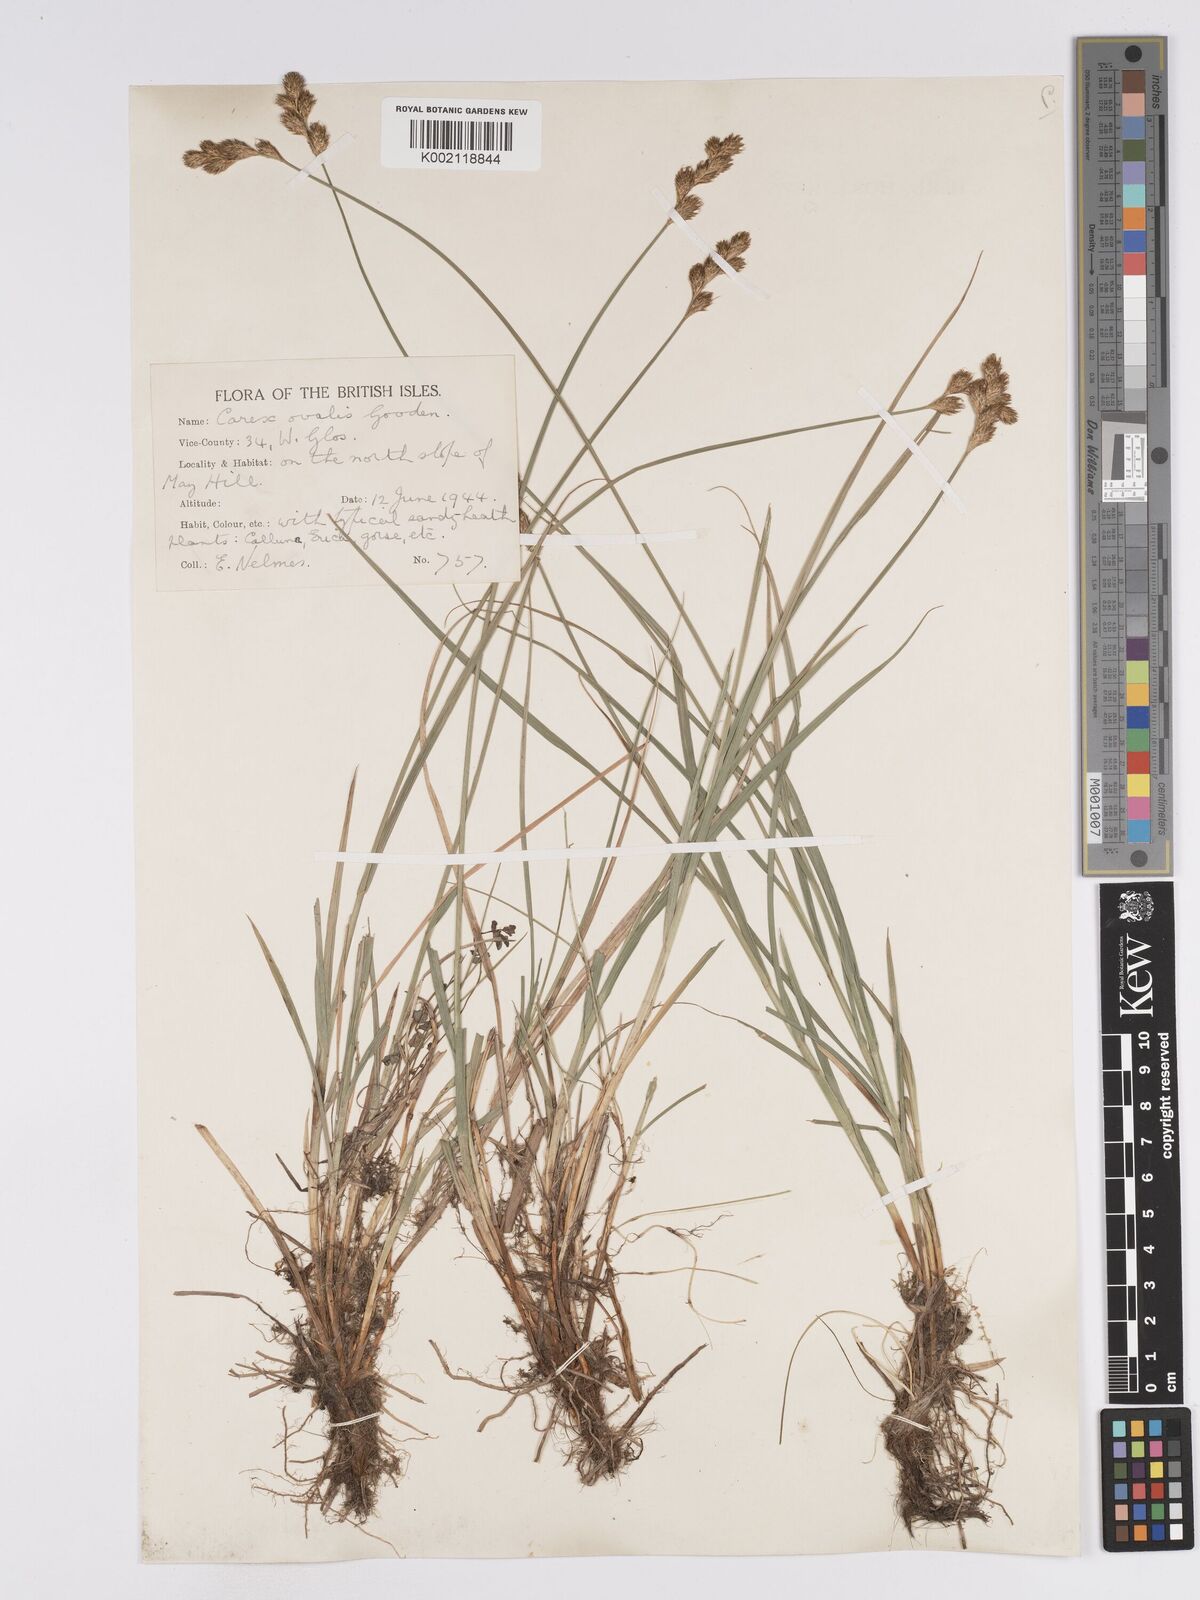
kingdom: Plantae
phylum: Tracheophyta
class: Liliopsida
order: Poales
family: Cyperaceae
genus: Carex
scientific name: Carex leporina
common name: Oval sedge
